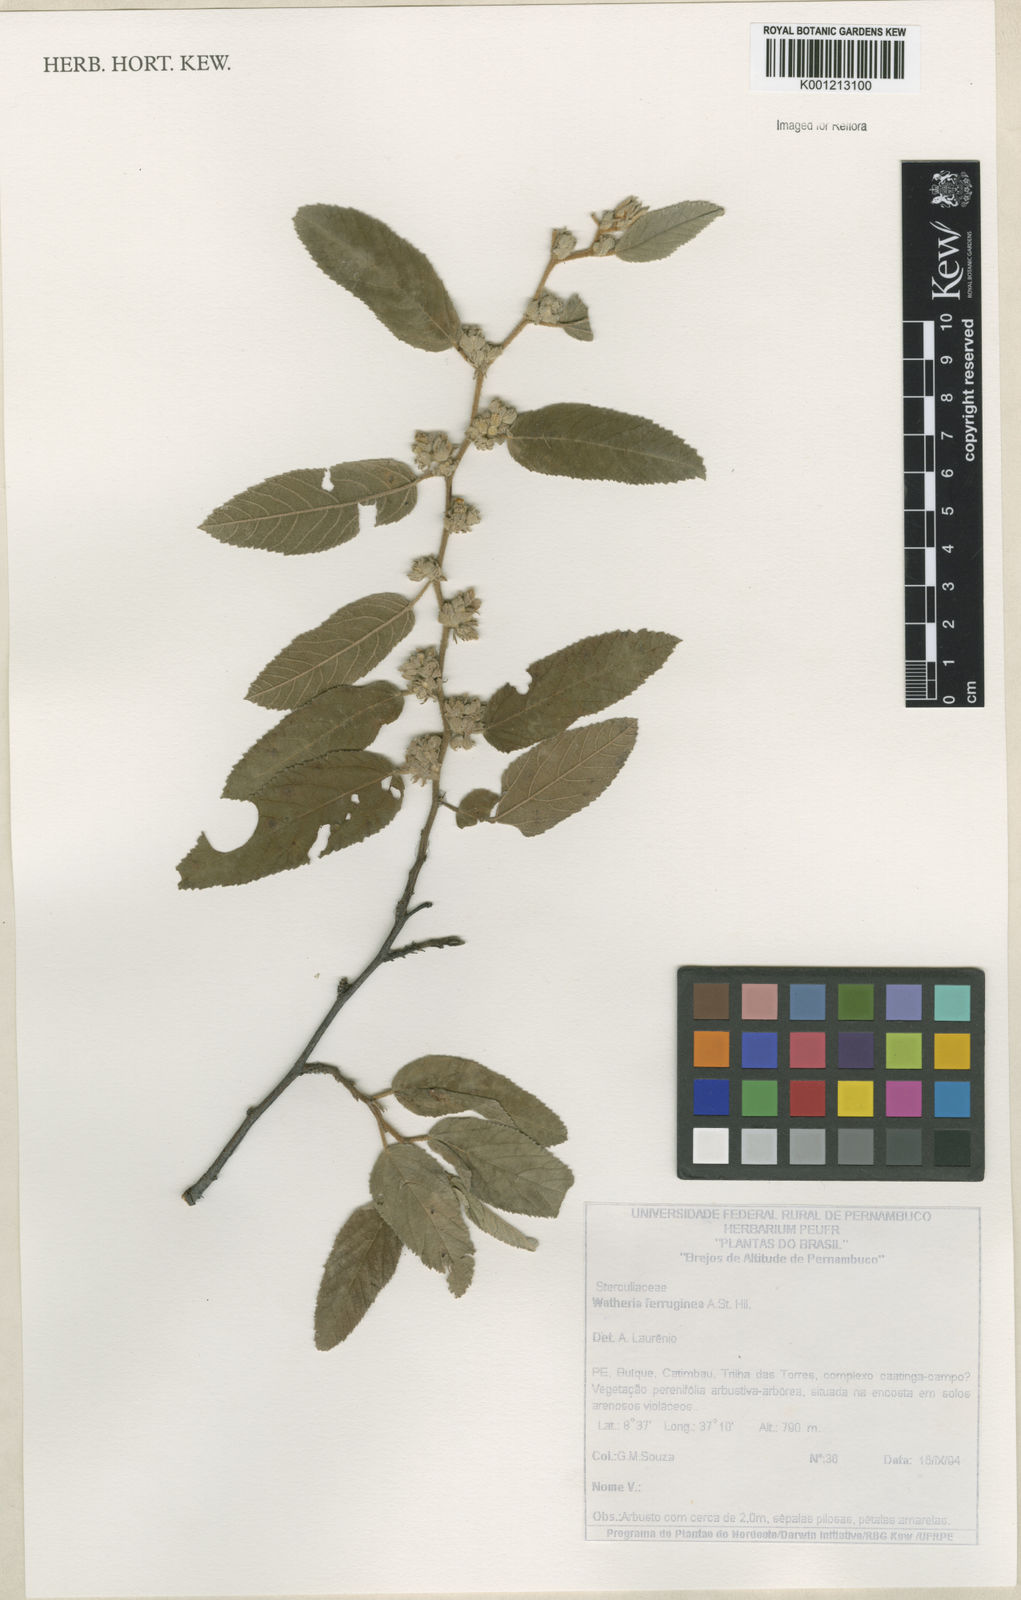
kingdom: Plantae
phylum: Tracheophyta
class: Magnoliopsida
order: Malvales
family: Malvaceae
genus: Waltheria
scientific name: Waltheria ferruginea
